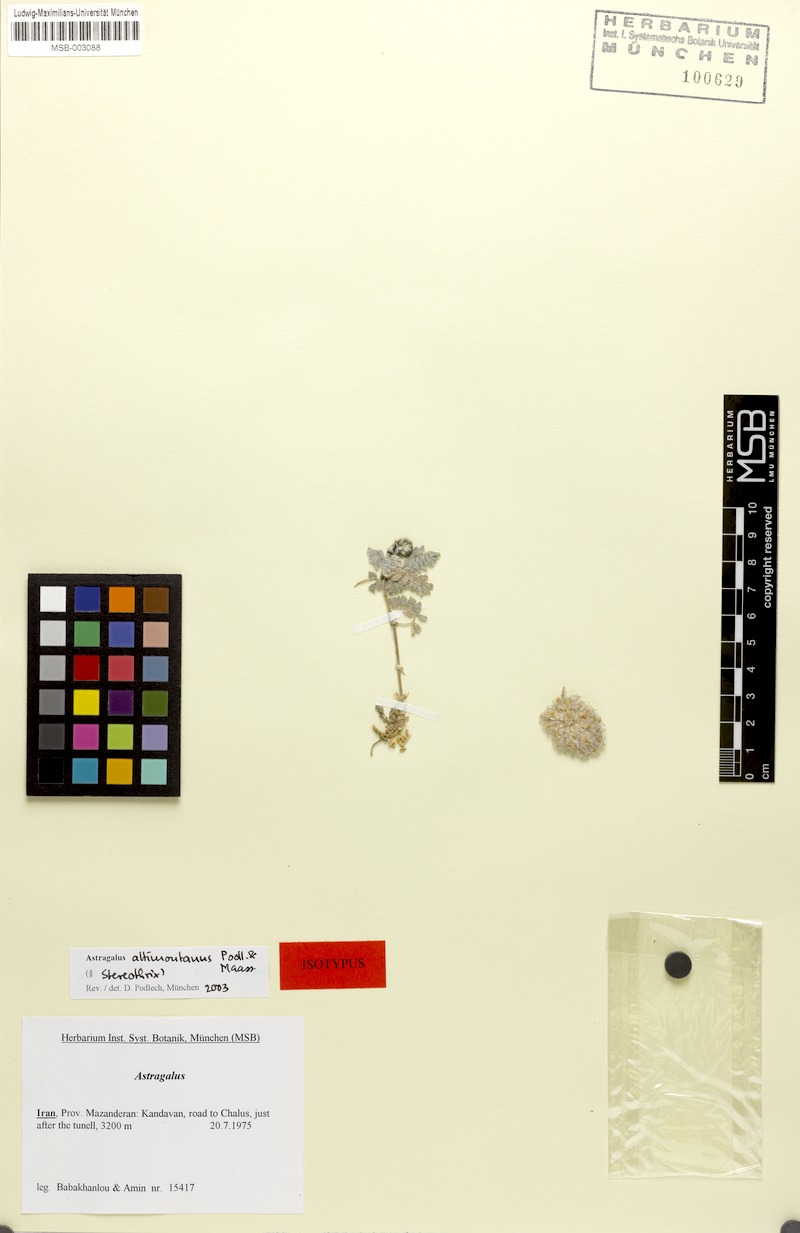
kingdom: Plantae
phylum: Tracheophyta
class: Magnoliopsida
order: Fabales
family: Fabaceae
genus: Astragalus
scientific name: Astragalus cymbostegis
